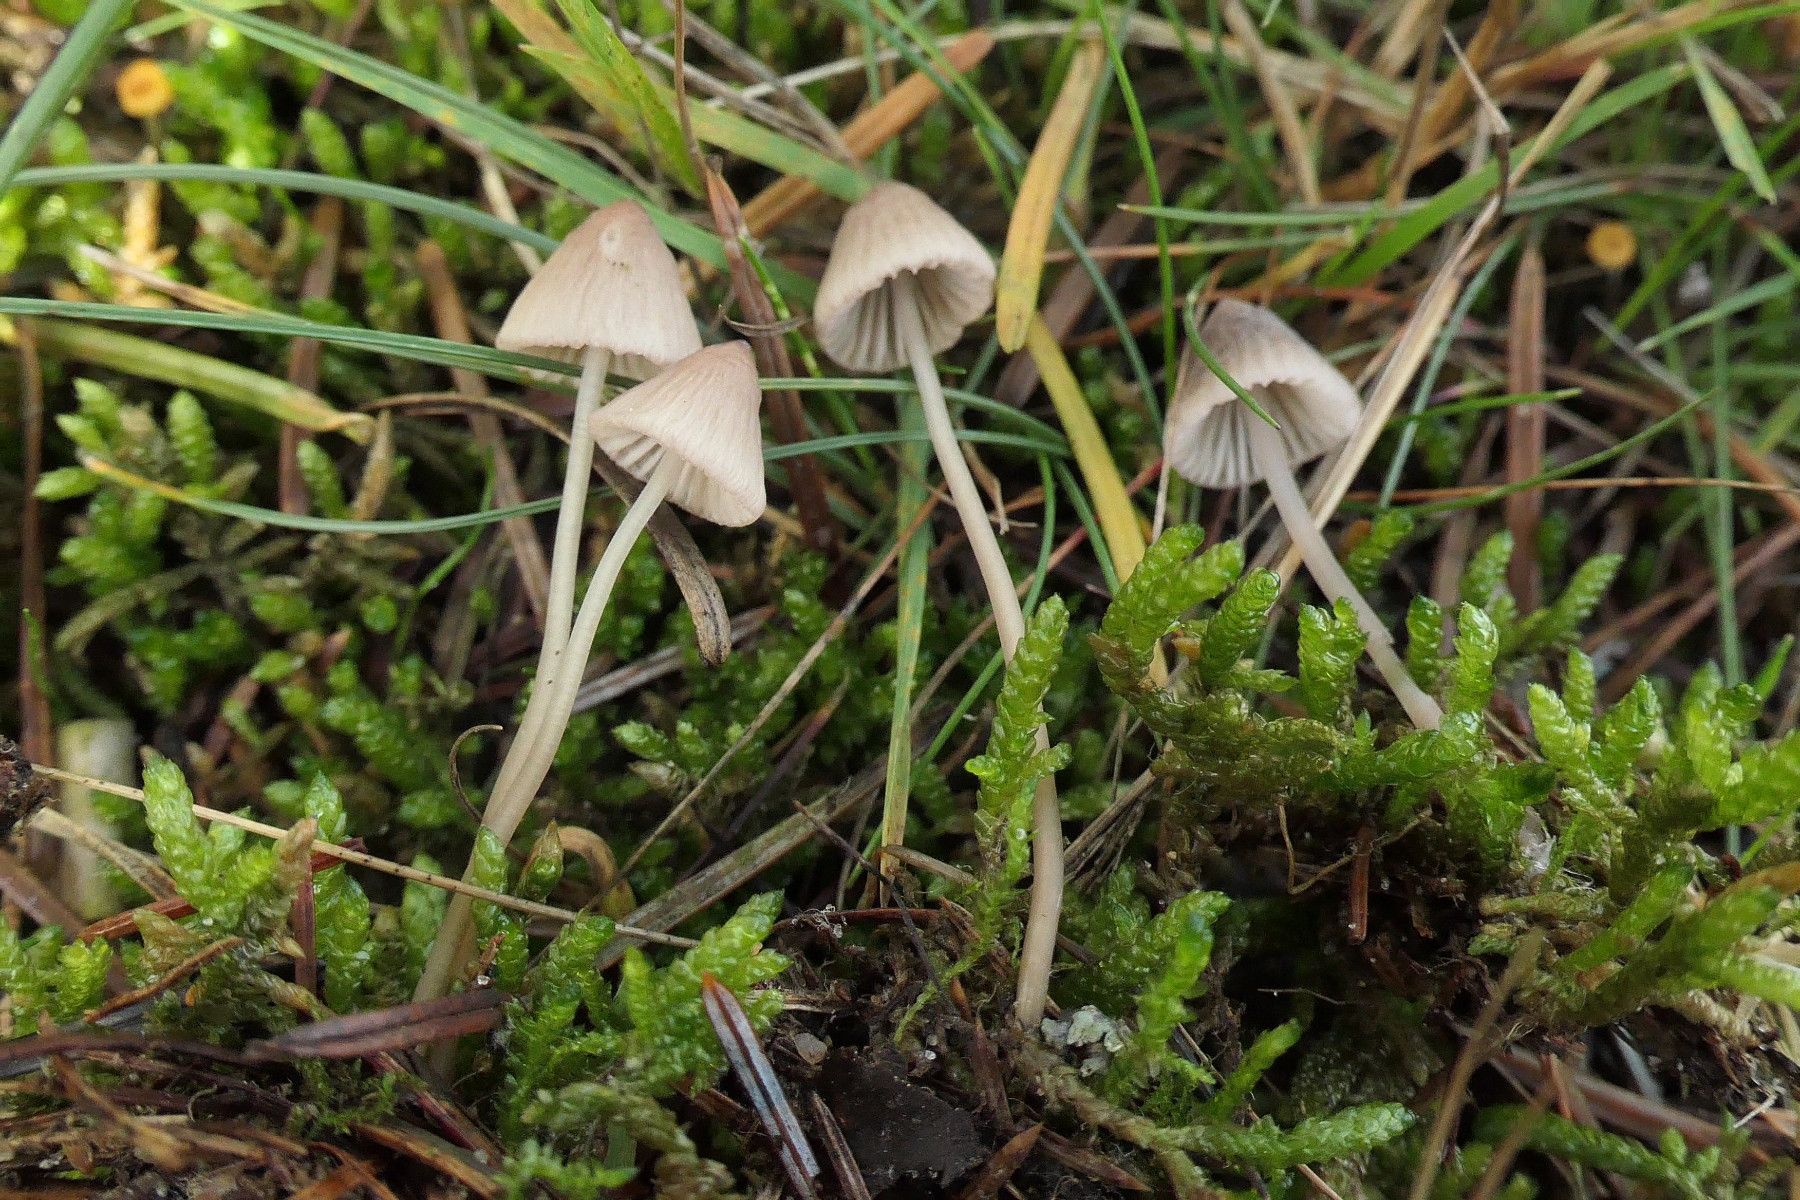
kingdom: Fungi
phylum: Basidiomycota
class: Agaricomycetes
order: Agaricales
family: Mycenaceae
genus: Mycena
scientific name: Mycena capillaripes
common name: nåle-huesvamp
